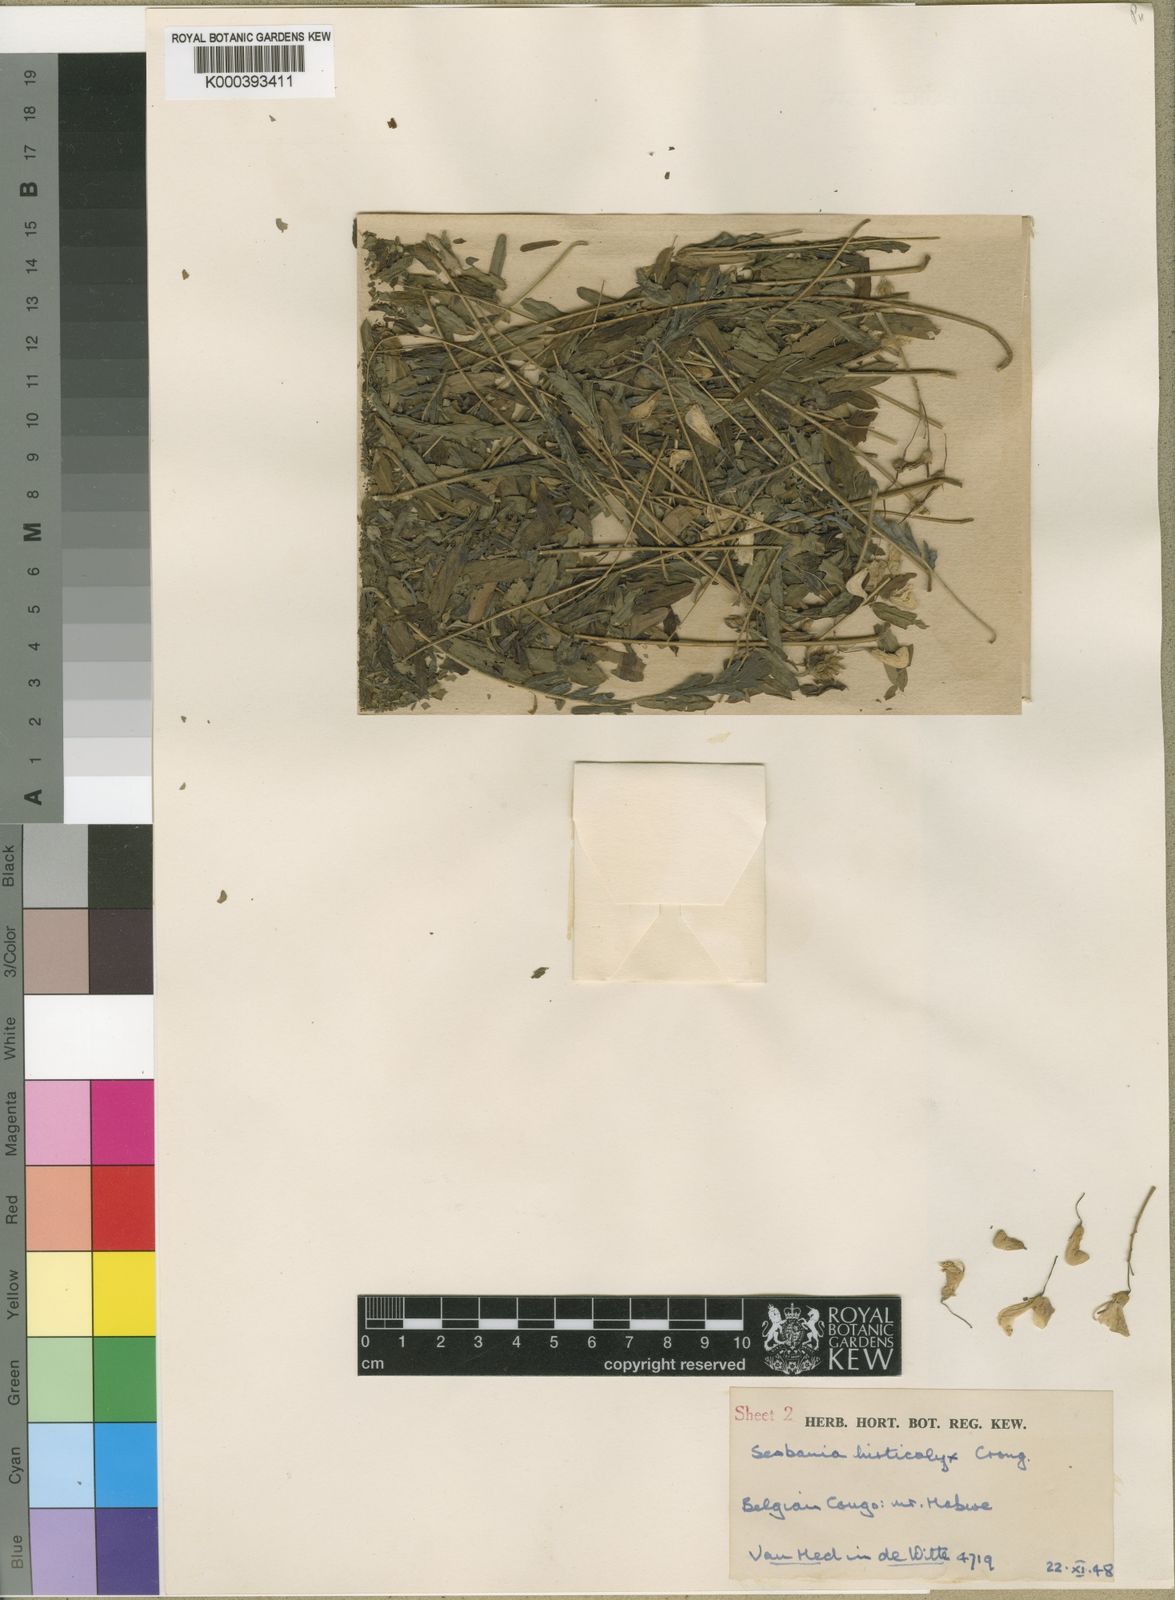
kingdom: Plantae
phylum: Tracheophyta
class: Magnoliopsida
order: Fabales
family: Fabaceae
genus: Sesbania
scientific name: Sesbania rostrata
